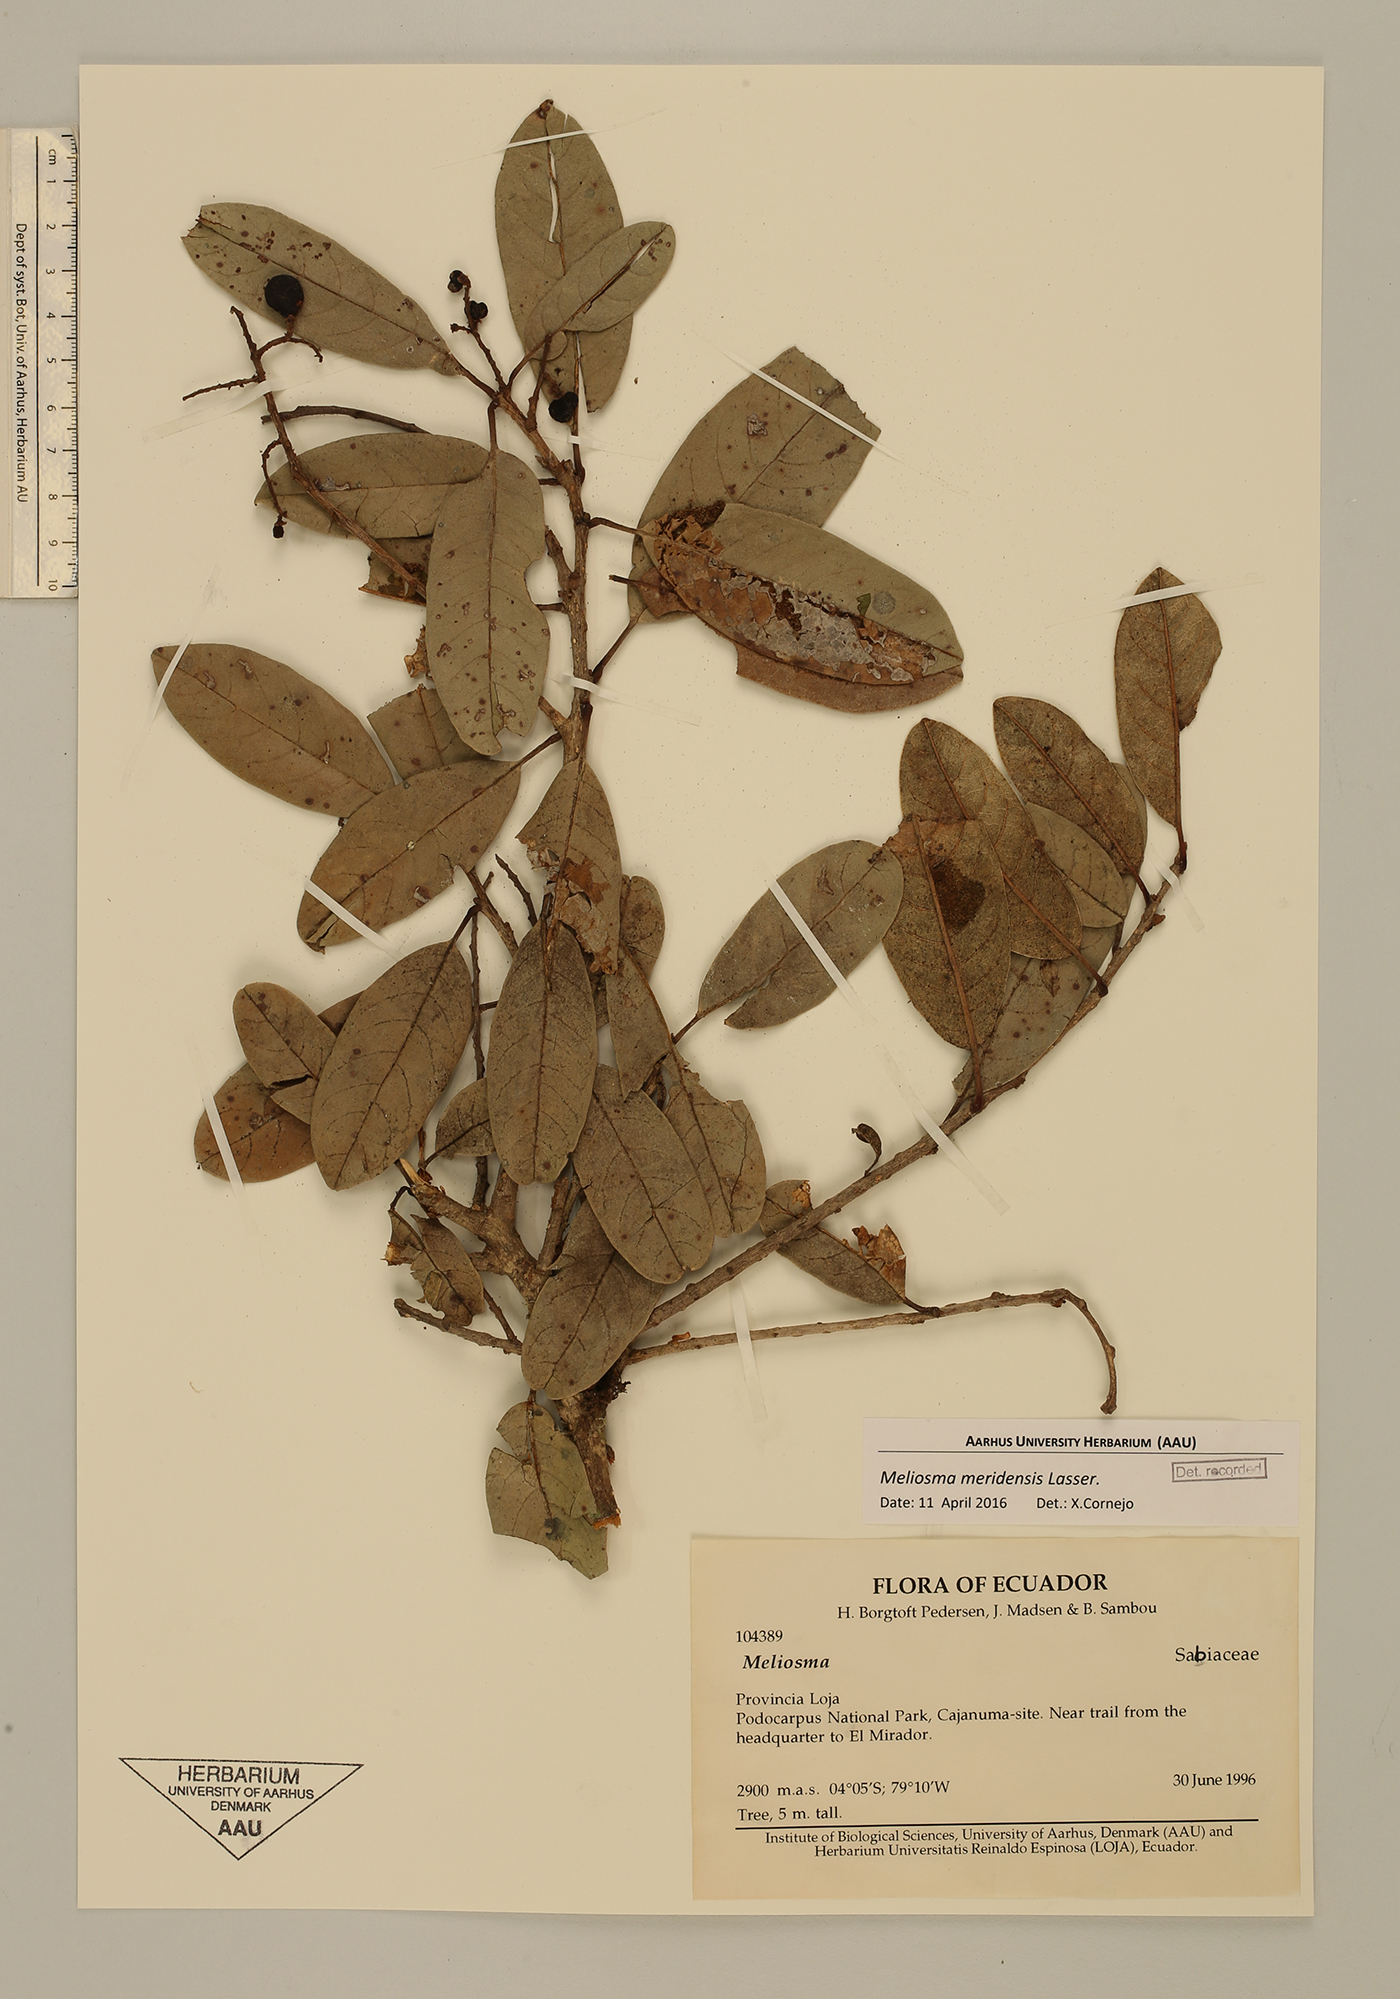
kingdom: Plantae
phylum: Tracheophyta
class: Magnoliopsida
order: Proteales
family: Sabiaceae
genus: Meliosma
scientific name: Meliosma meridensis
